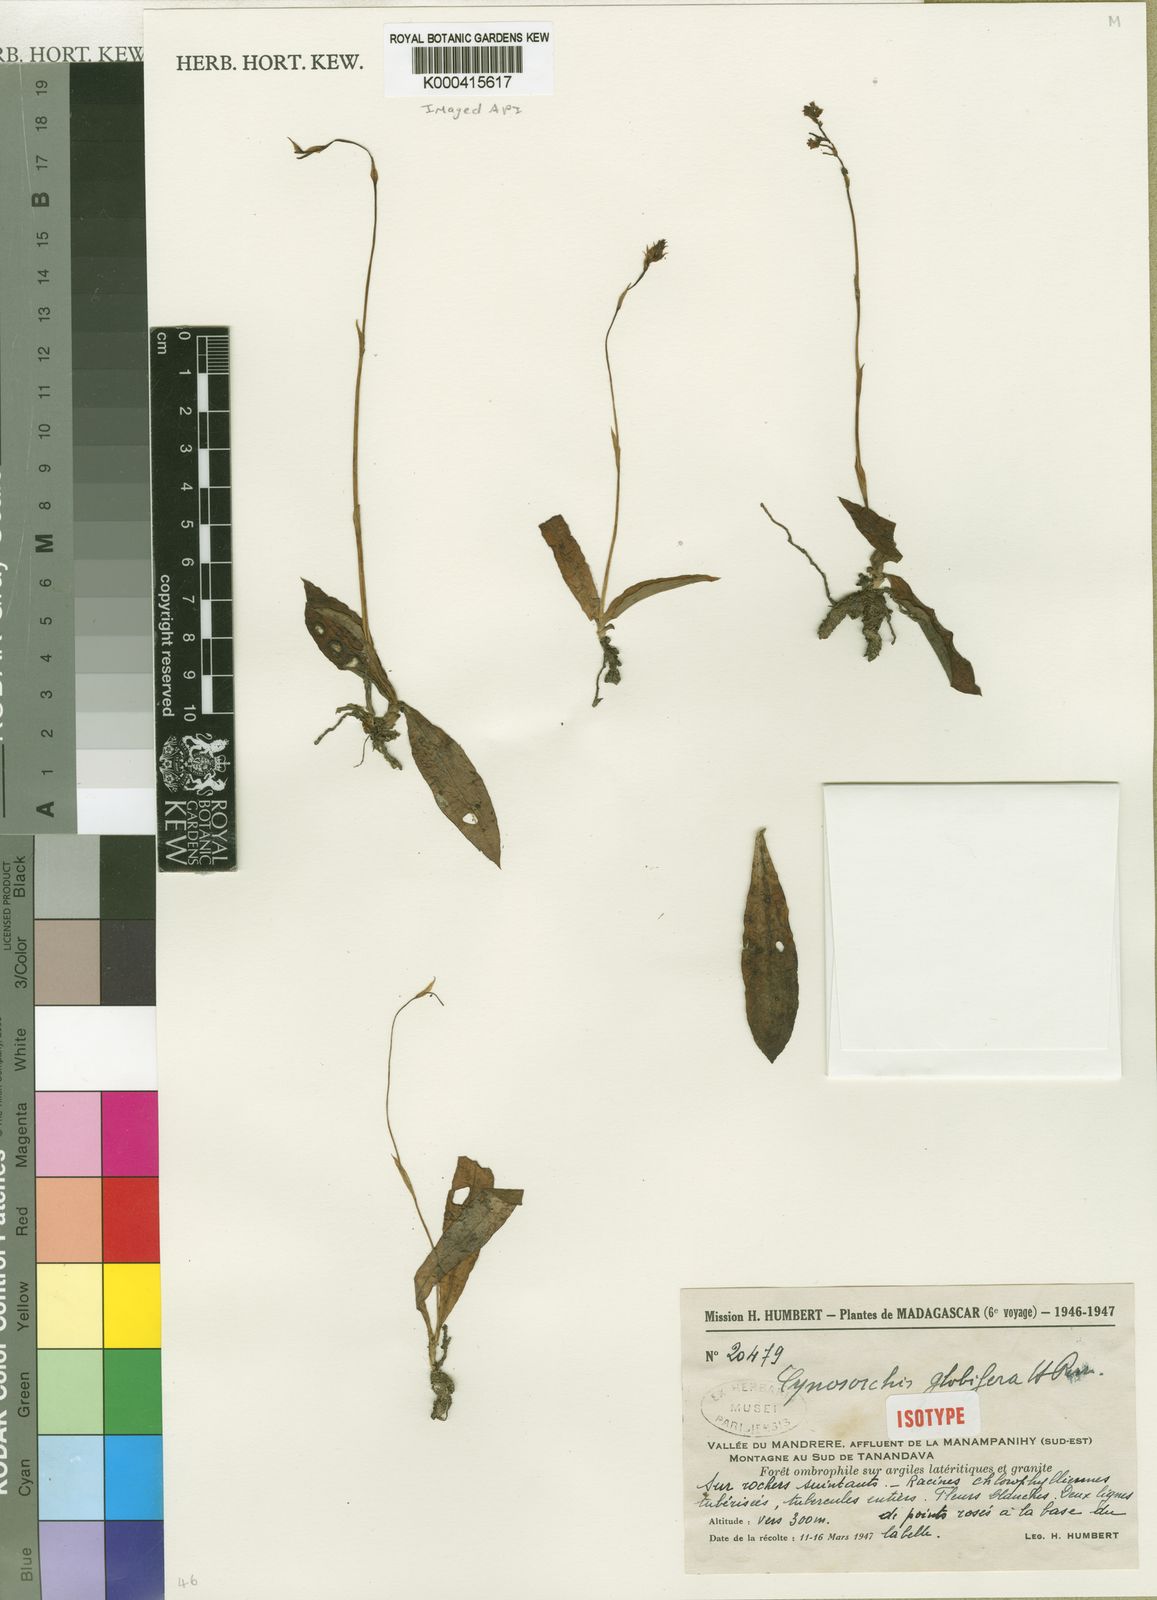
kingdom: Plantae
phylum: Tracheophyta
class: Liliopsida
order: Asparagales
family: Orchidaceae
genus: Cynorkis
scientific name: Cynorkis globifera
